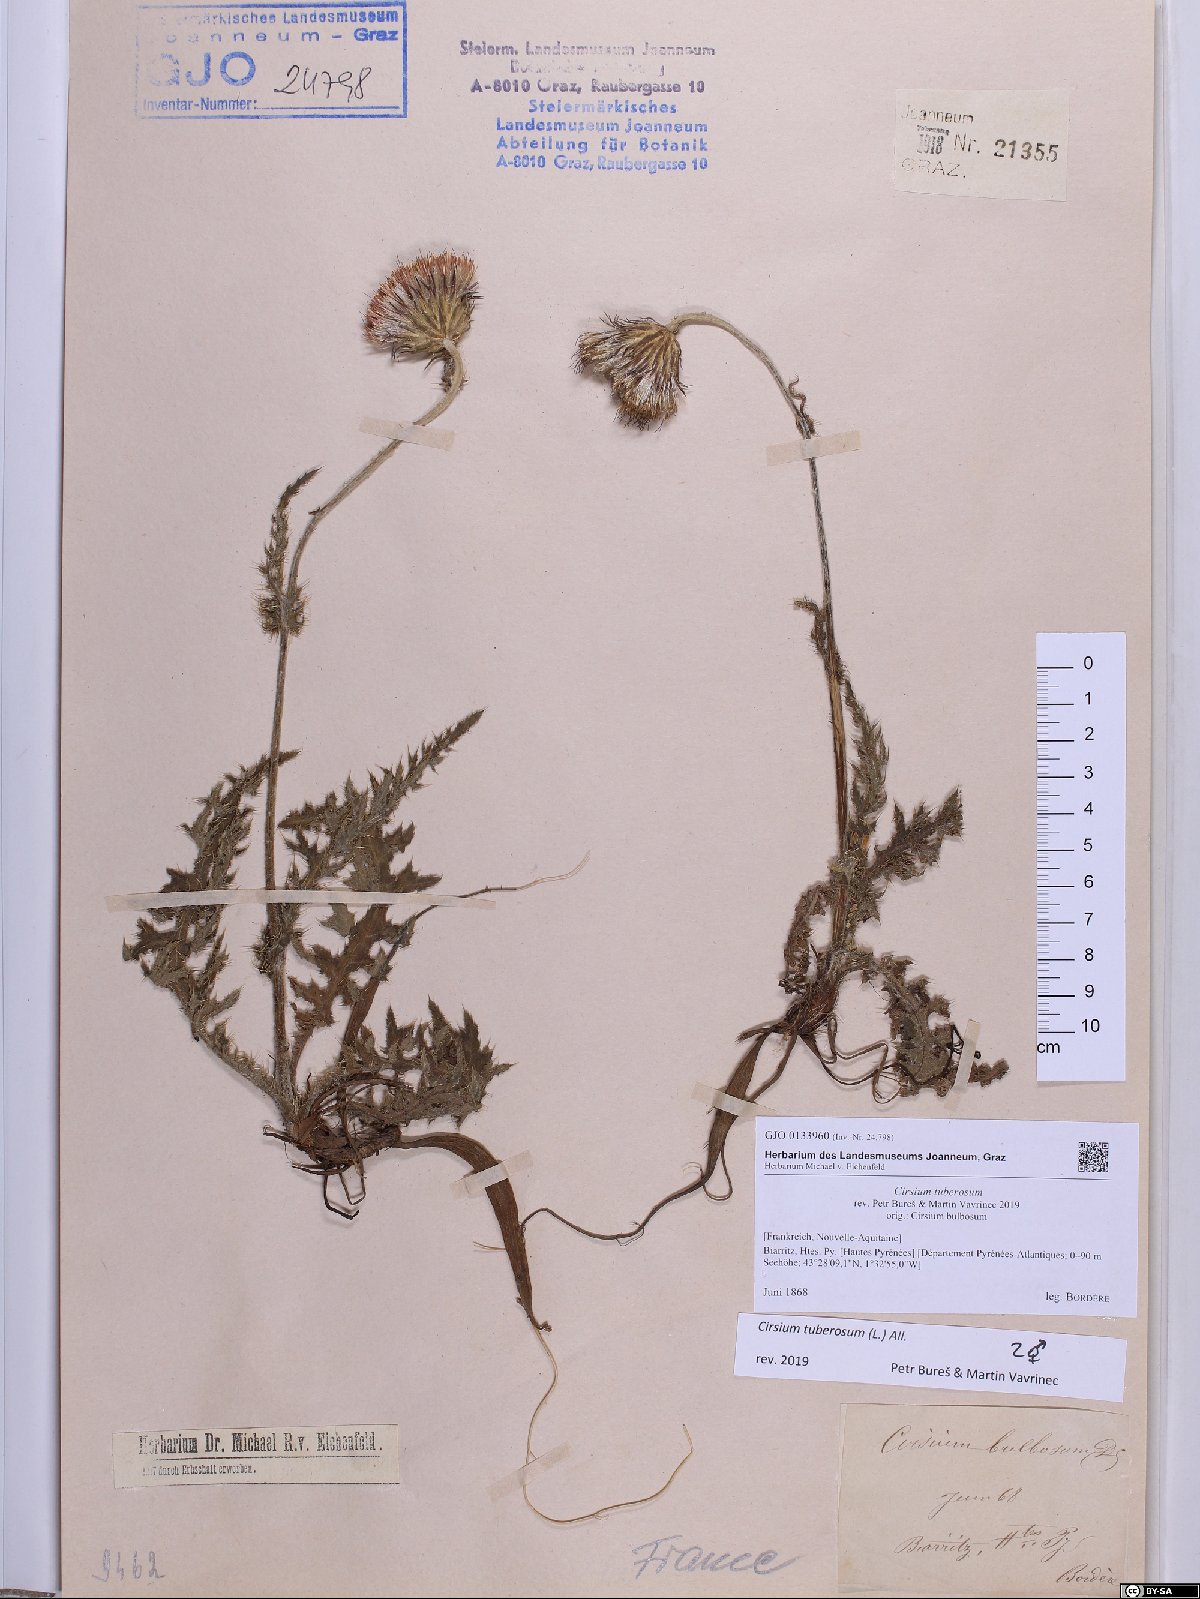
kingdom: Plantae
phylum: Tracheophyta
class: Magnoliopsida
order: Asterales
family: Asteraceae
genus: Cirsium
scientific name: Cirsium tuberosum
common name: Tuberous thistle
